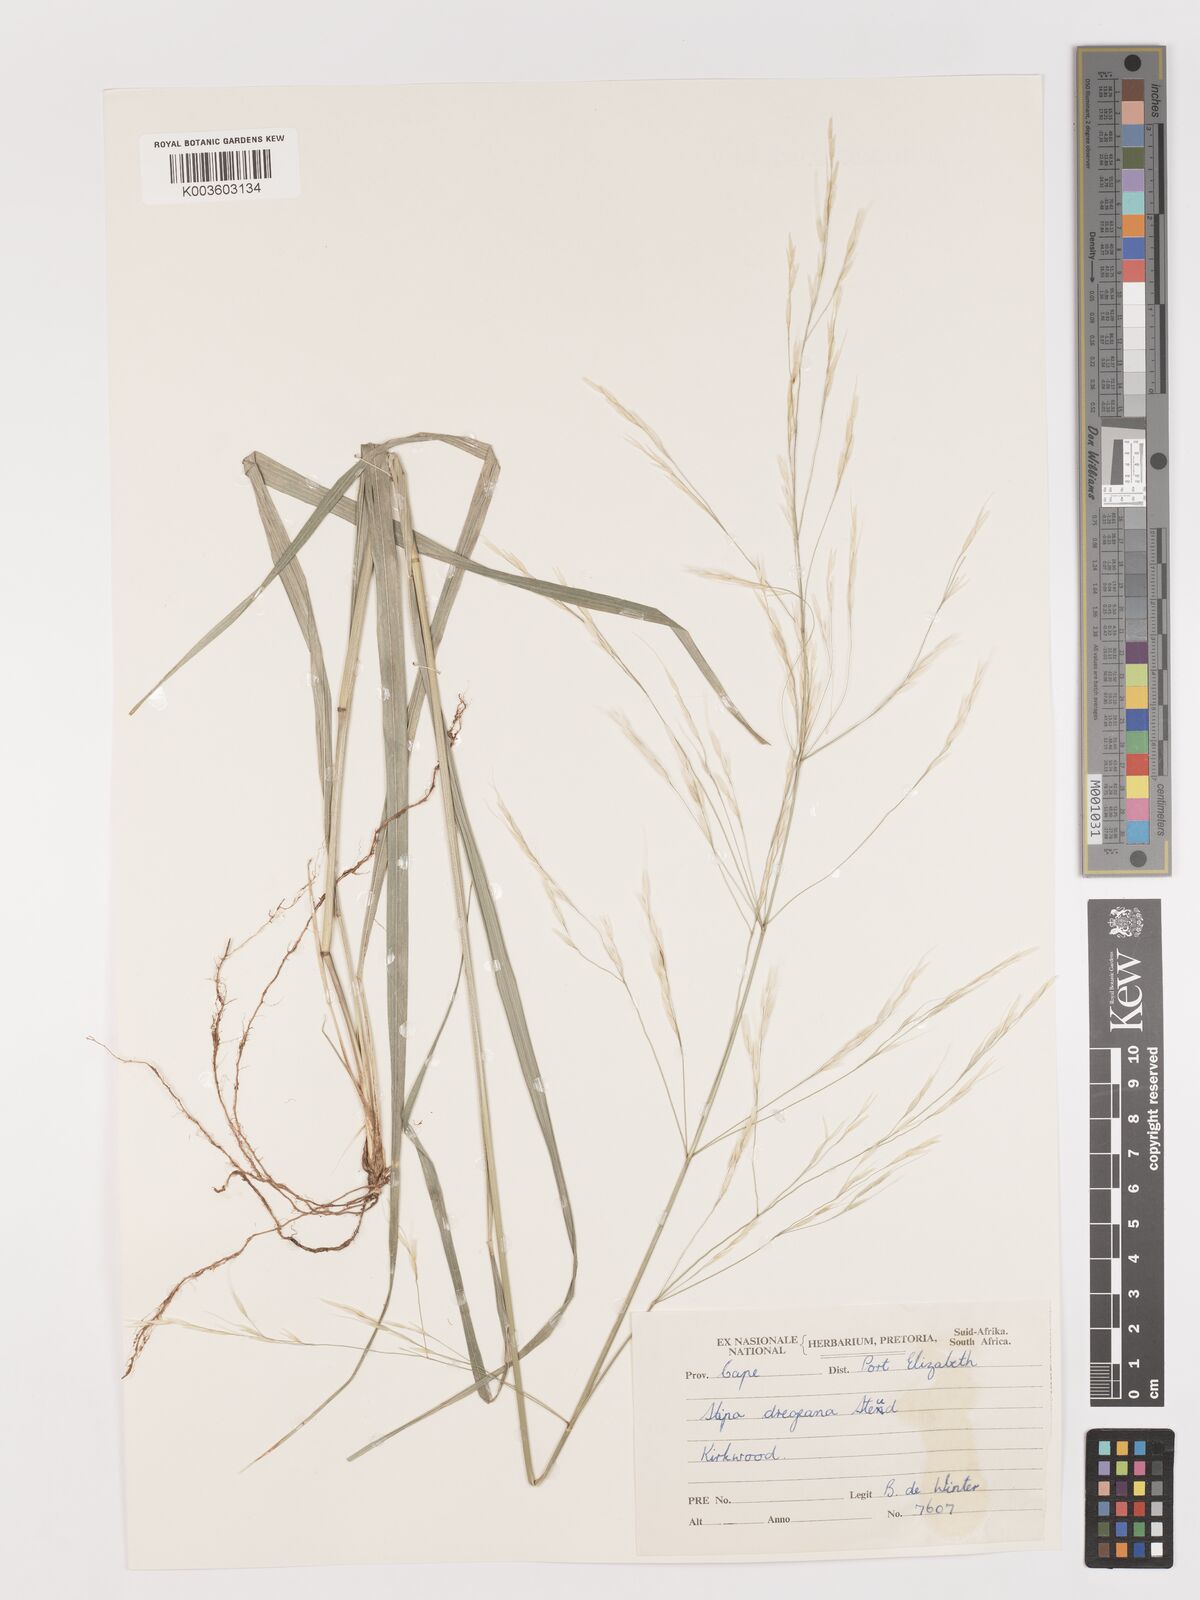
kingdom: Plantae
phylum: Tracheophyta
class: Liliopsida
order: Poales
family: Poaceae
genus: Stipa
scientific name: Stipa dregeana
